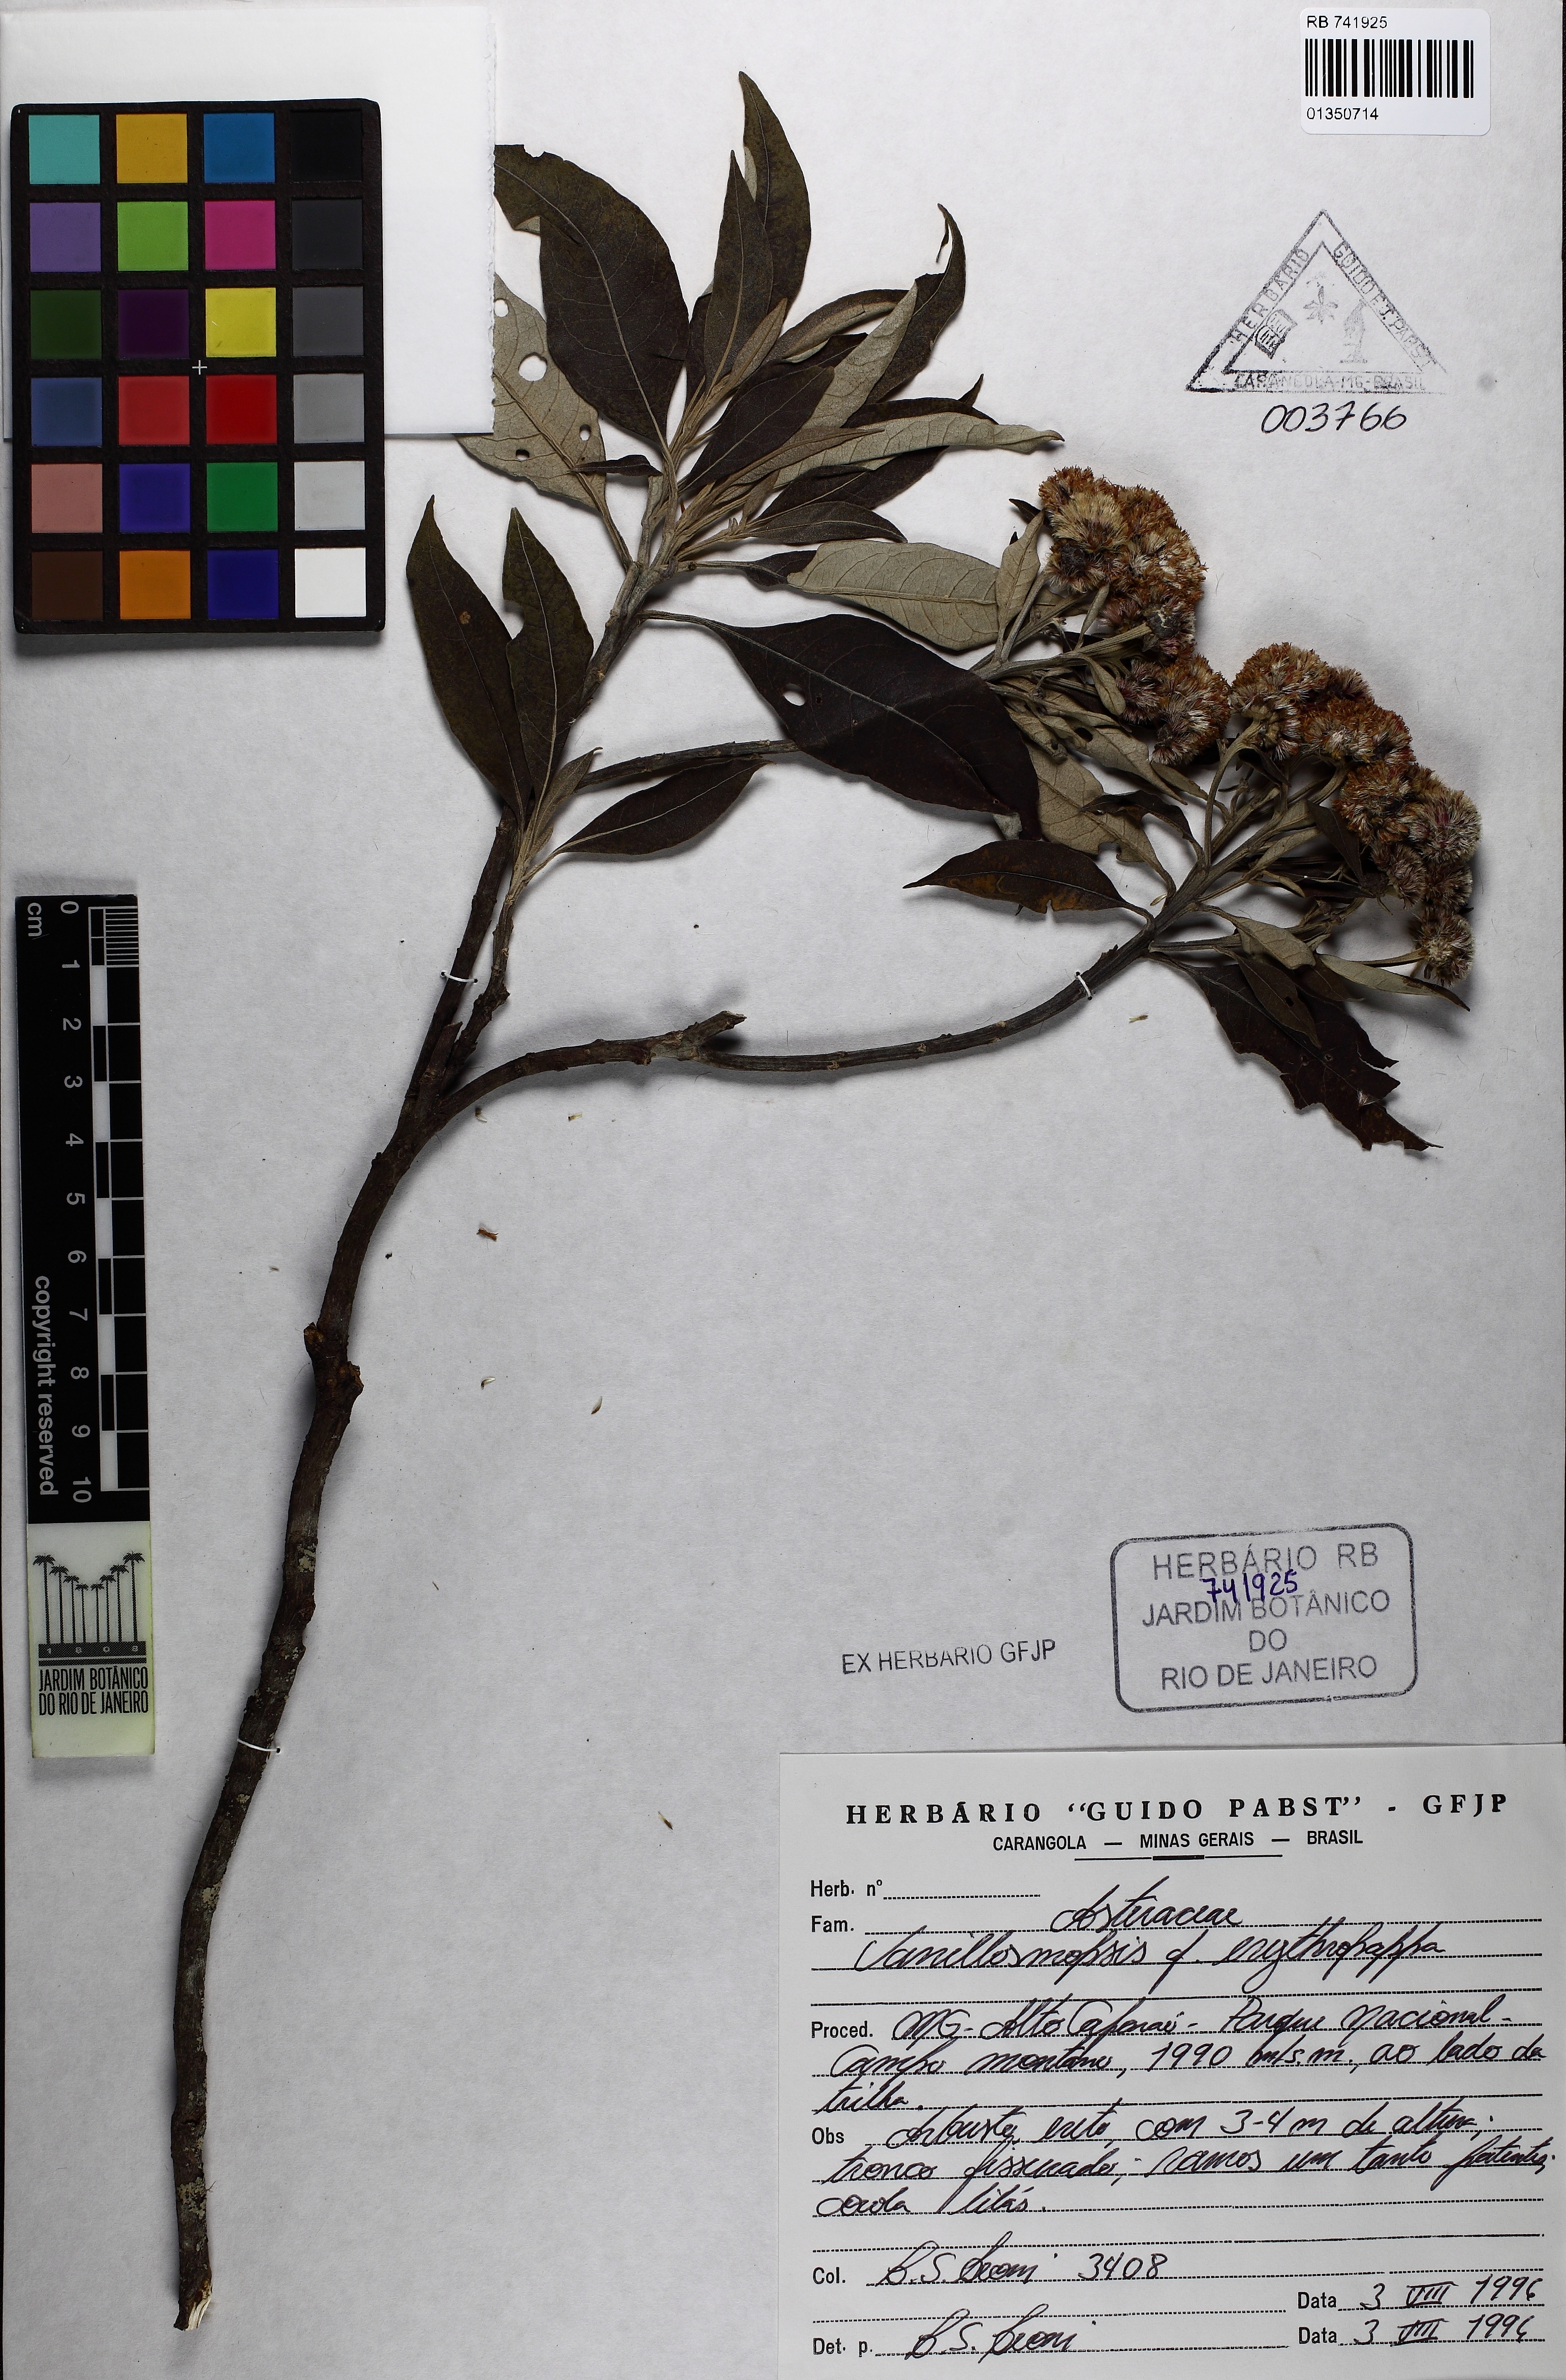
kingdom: Plantae
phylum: Tracheophyta
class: Magnoliopsida
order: Asterales
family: Asteraceae
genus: Eremanthus
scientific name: Eremanthus erythropappus
